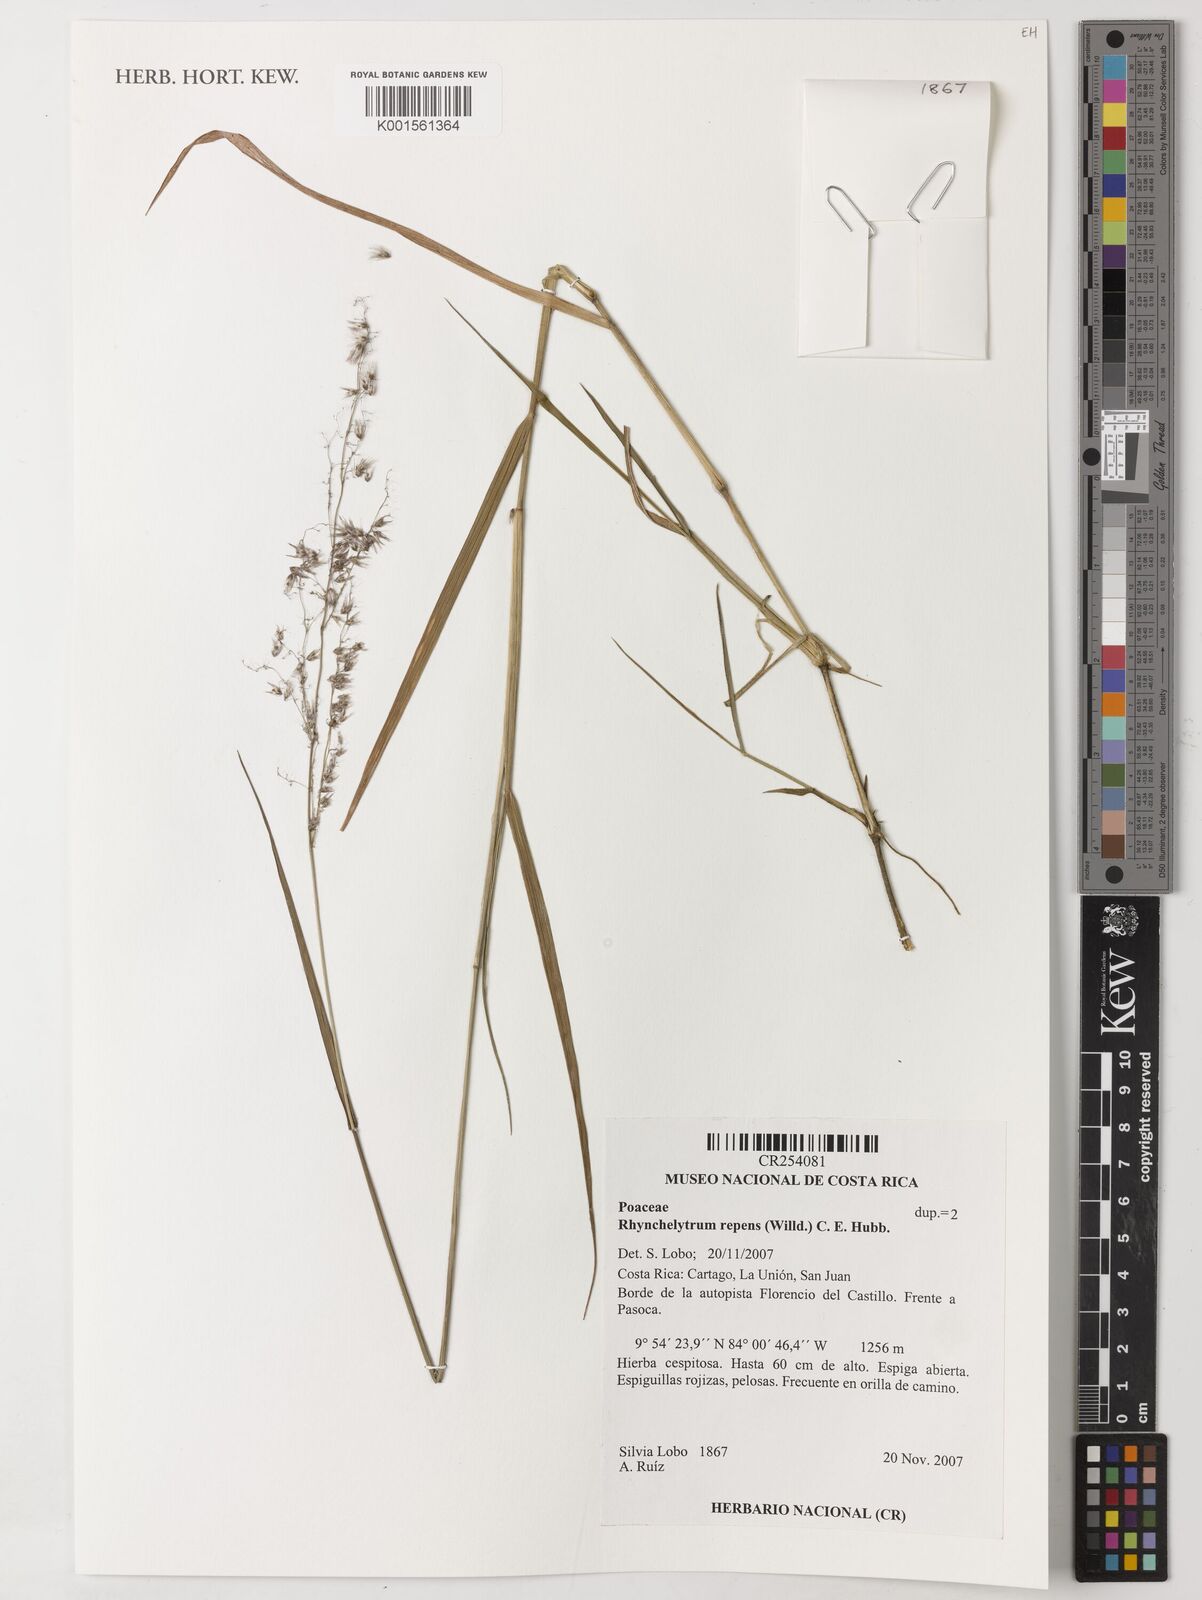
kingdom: Plantae
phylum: Tracheophyta
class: Liliopsida
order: Poales
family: Poaceae
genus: Melinis
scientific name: Melinis repens
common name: Rose natal grass
